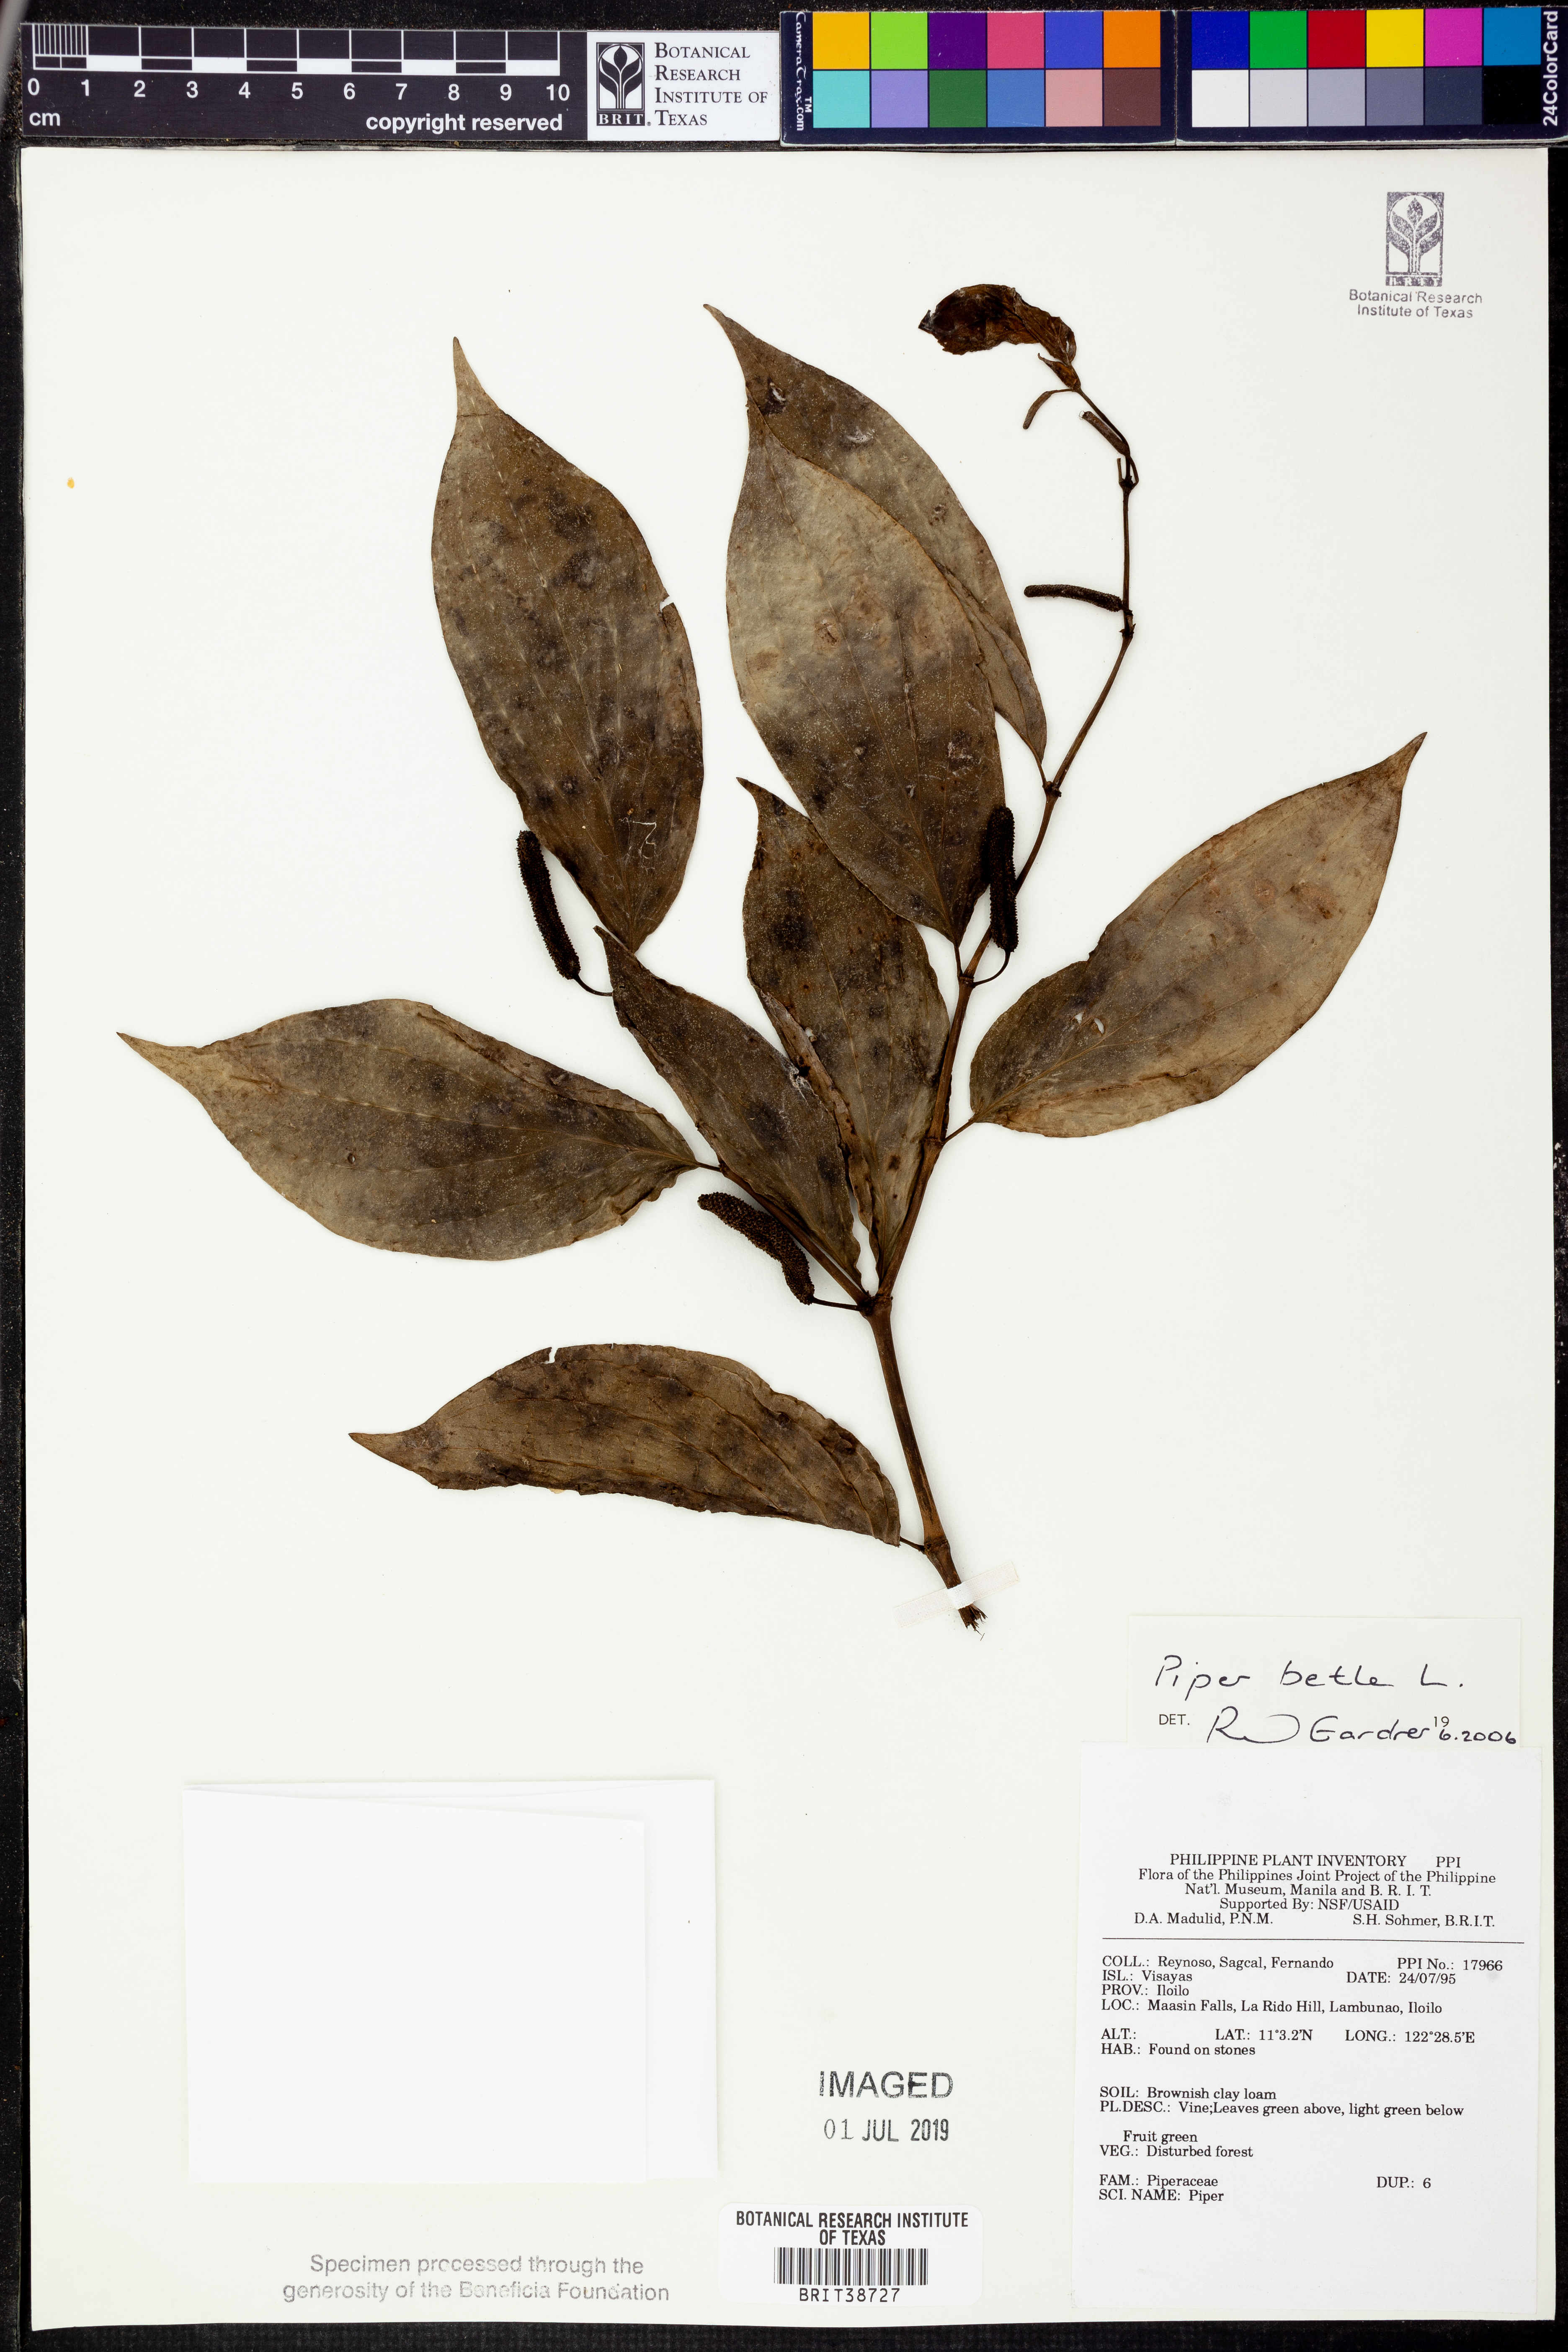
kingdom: Plantae
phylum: Tracheophyta
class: Magnoliopsida
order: Piperales
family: Piperaceae
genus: Piper
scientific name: Piper
